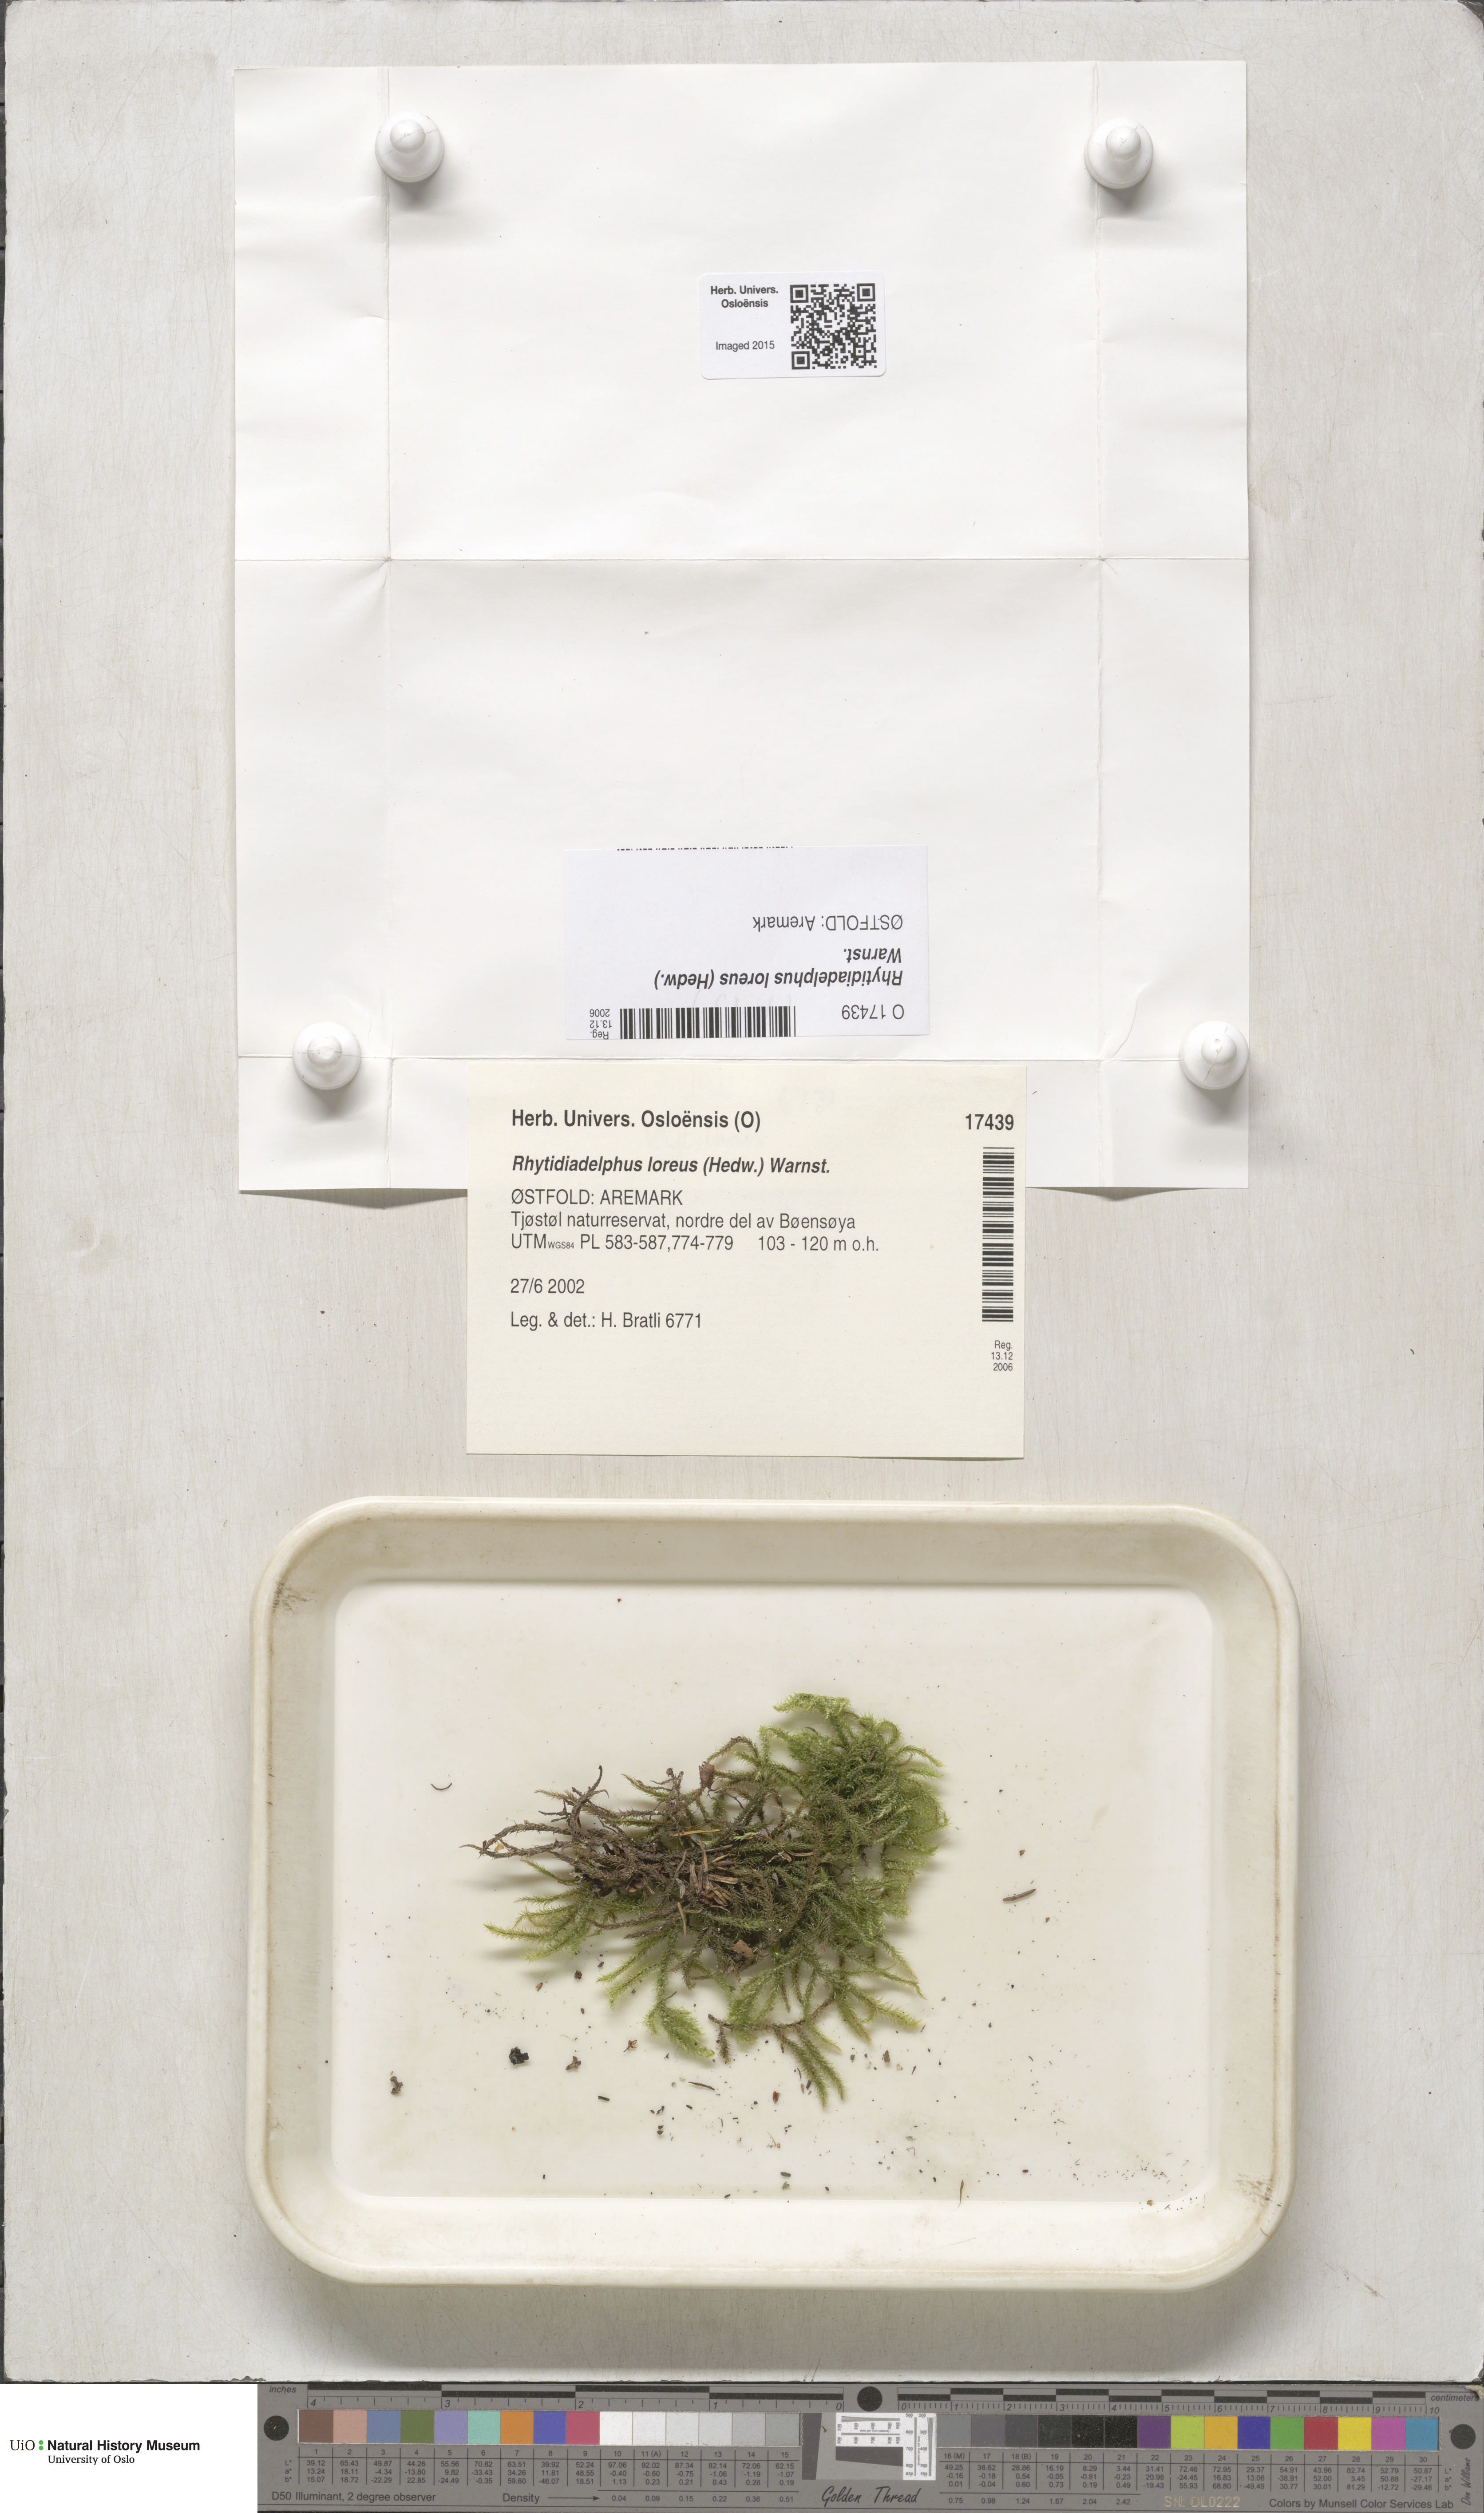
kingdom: Plantae
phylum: Bryophyta
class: Bryopsida
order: Hypnales
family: Hylocomiaceae
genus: Rhytidiadelphus
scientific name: Rhytidiadelphus loreus
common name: Lanky moss
